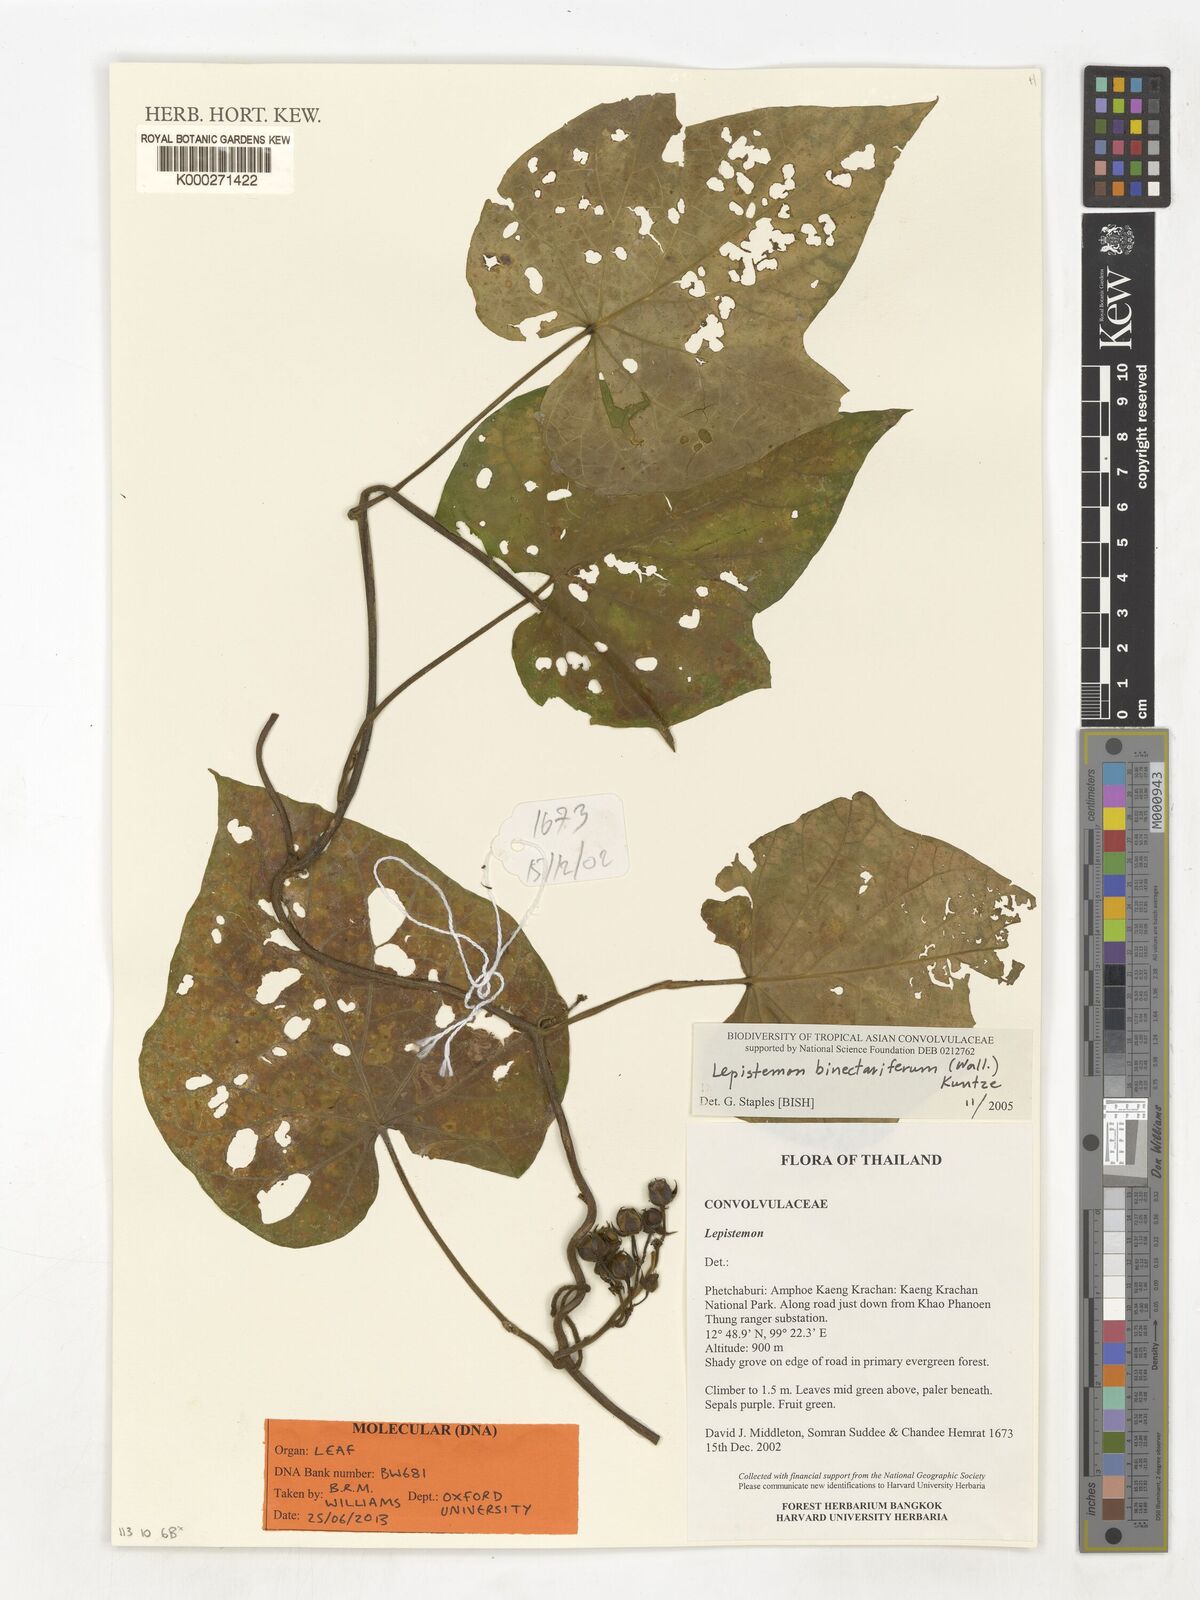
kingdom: Plantae
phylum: Tracheophyta
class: Magnoliopsida
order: Solanales
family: Convolvulaceae
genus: Lepistemon
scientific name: Lepistemon
